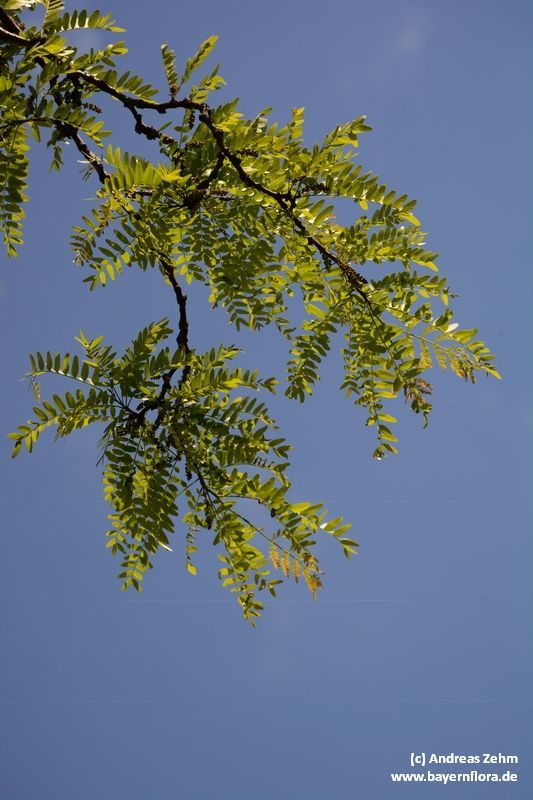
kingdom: Plantae
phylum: Tracheophyta
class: Magnoliopsida
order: Fabales
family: Fabaceae
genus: Gleditsia
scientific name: Gleditsia triacanthos
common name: Common honeylocust
